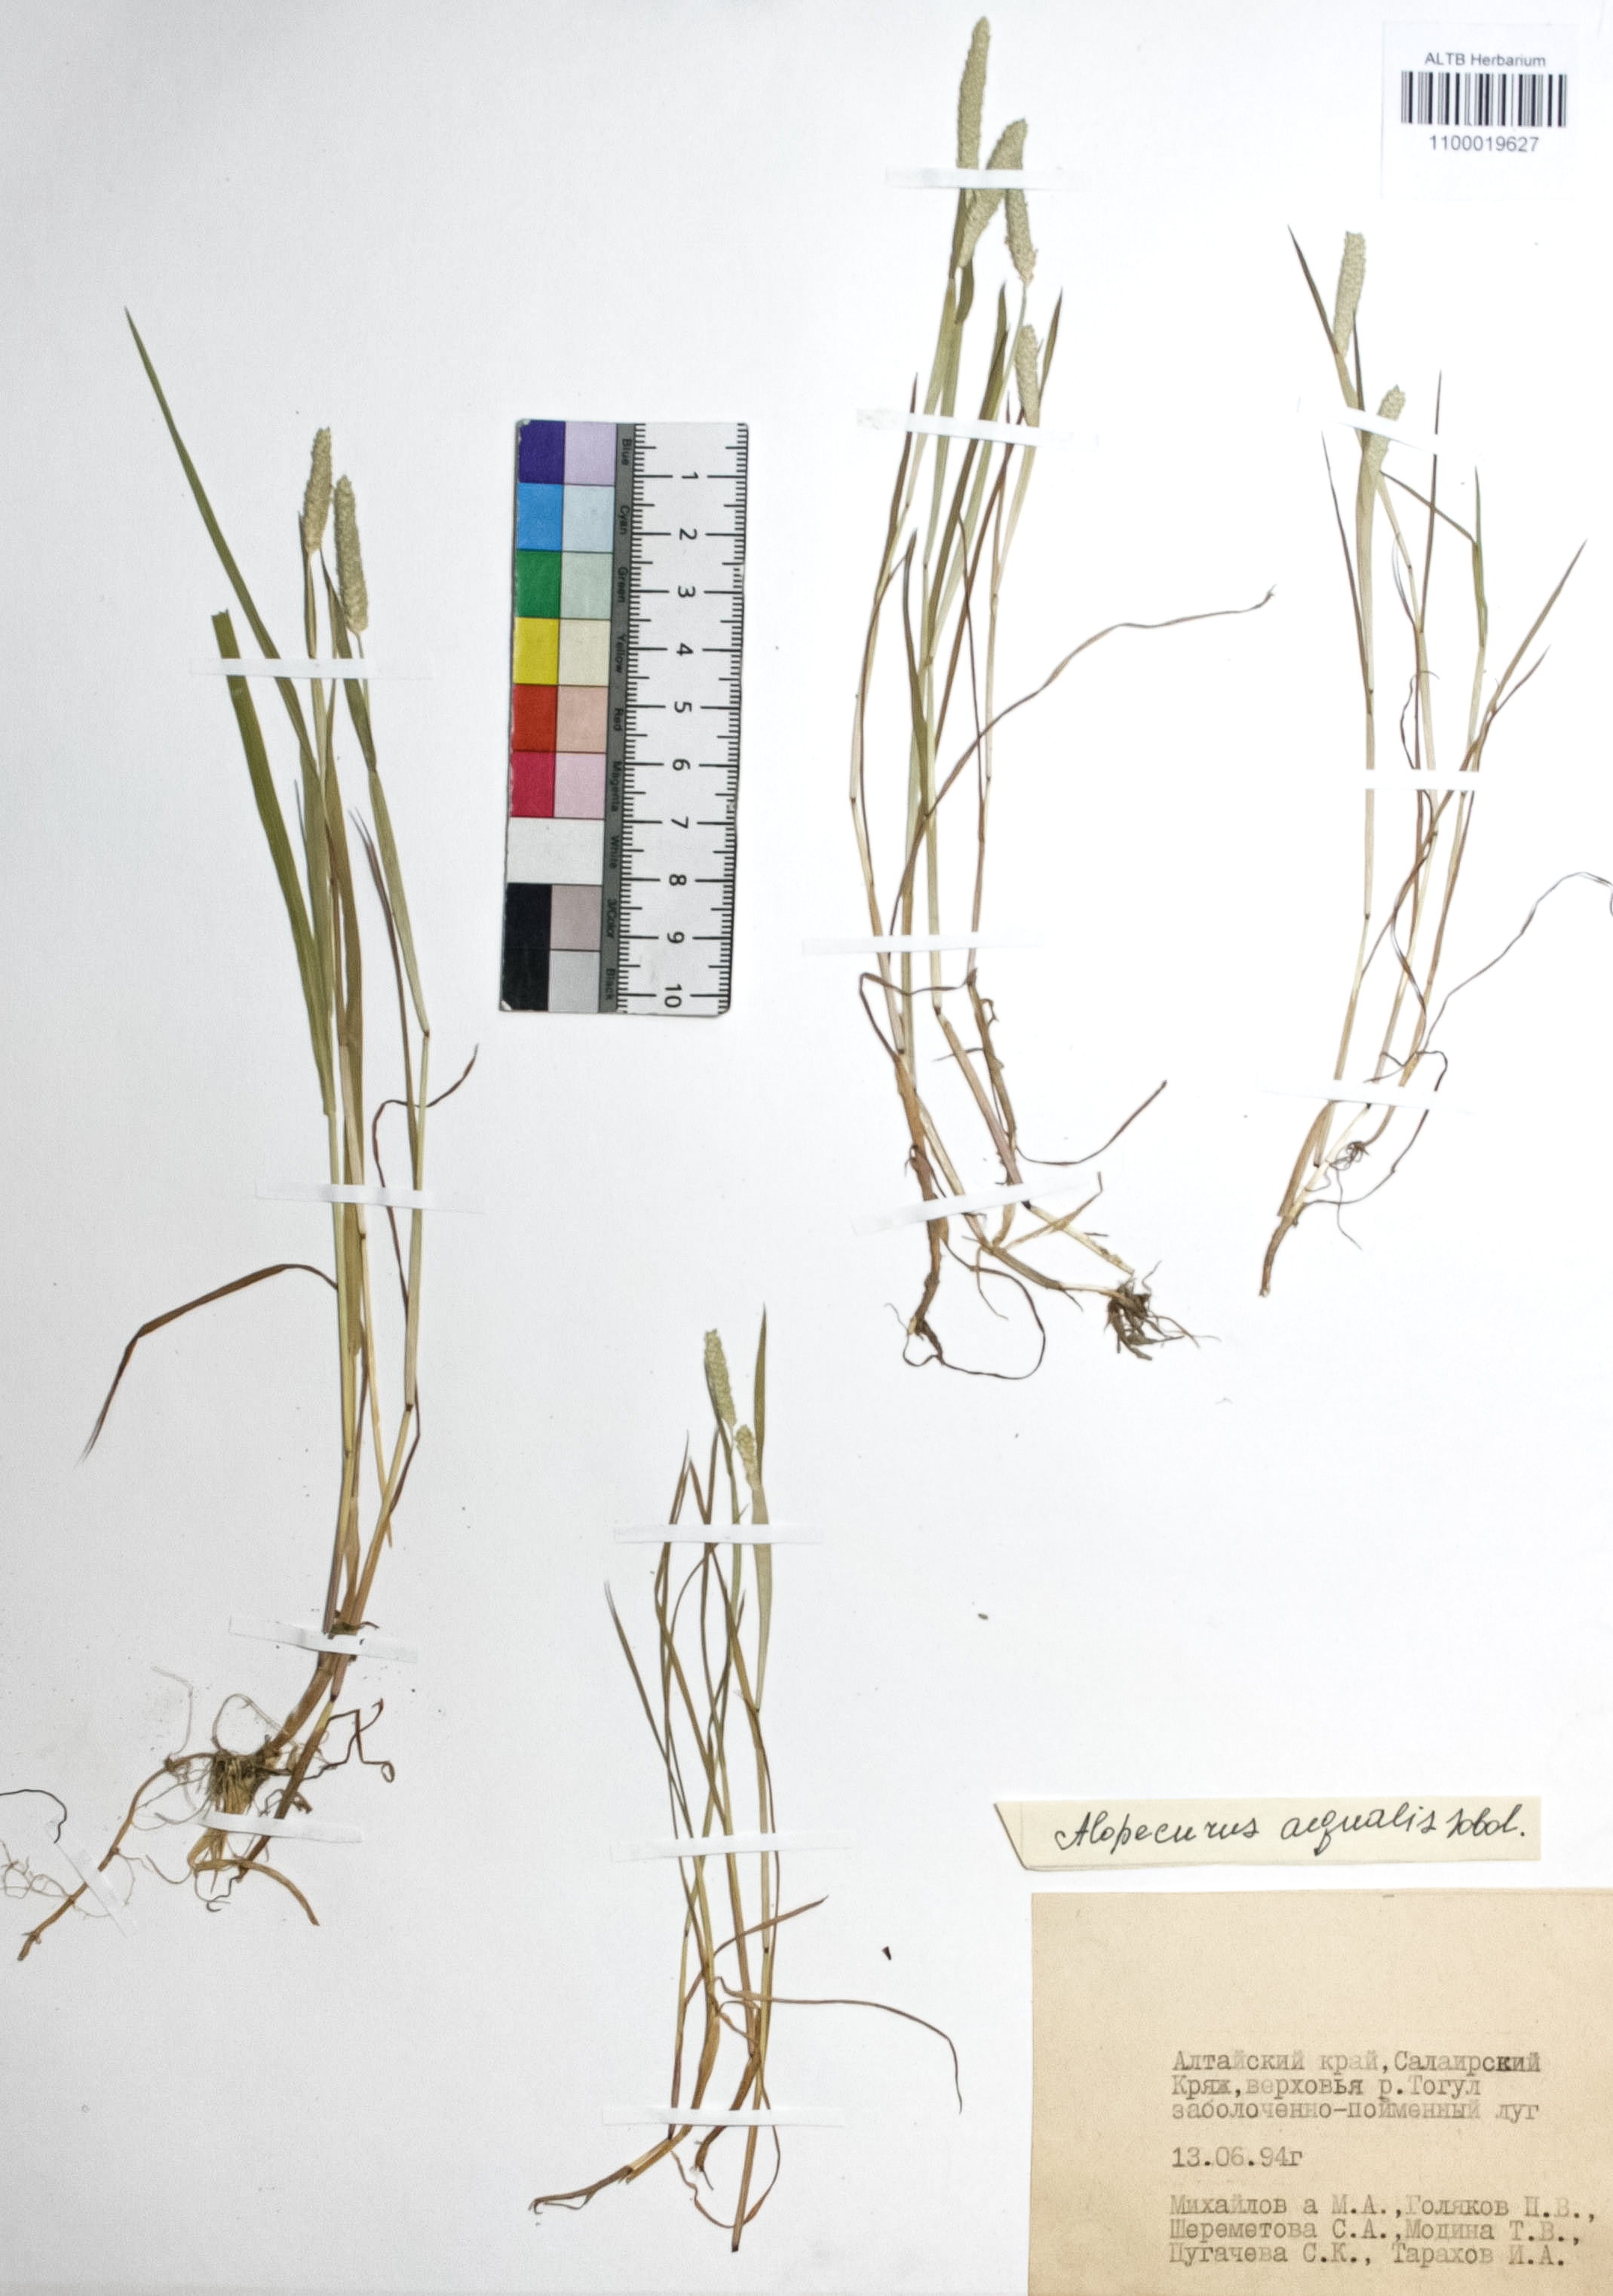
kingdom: Plantae
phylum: Tracheophyta
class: Liliopsida
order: Poales
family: Poaceae
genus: Alopecurus
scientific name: Alopecurus aequalis
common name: Orange foxtail
